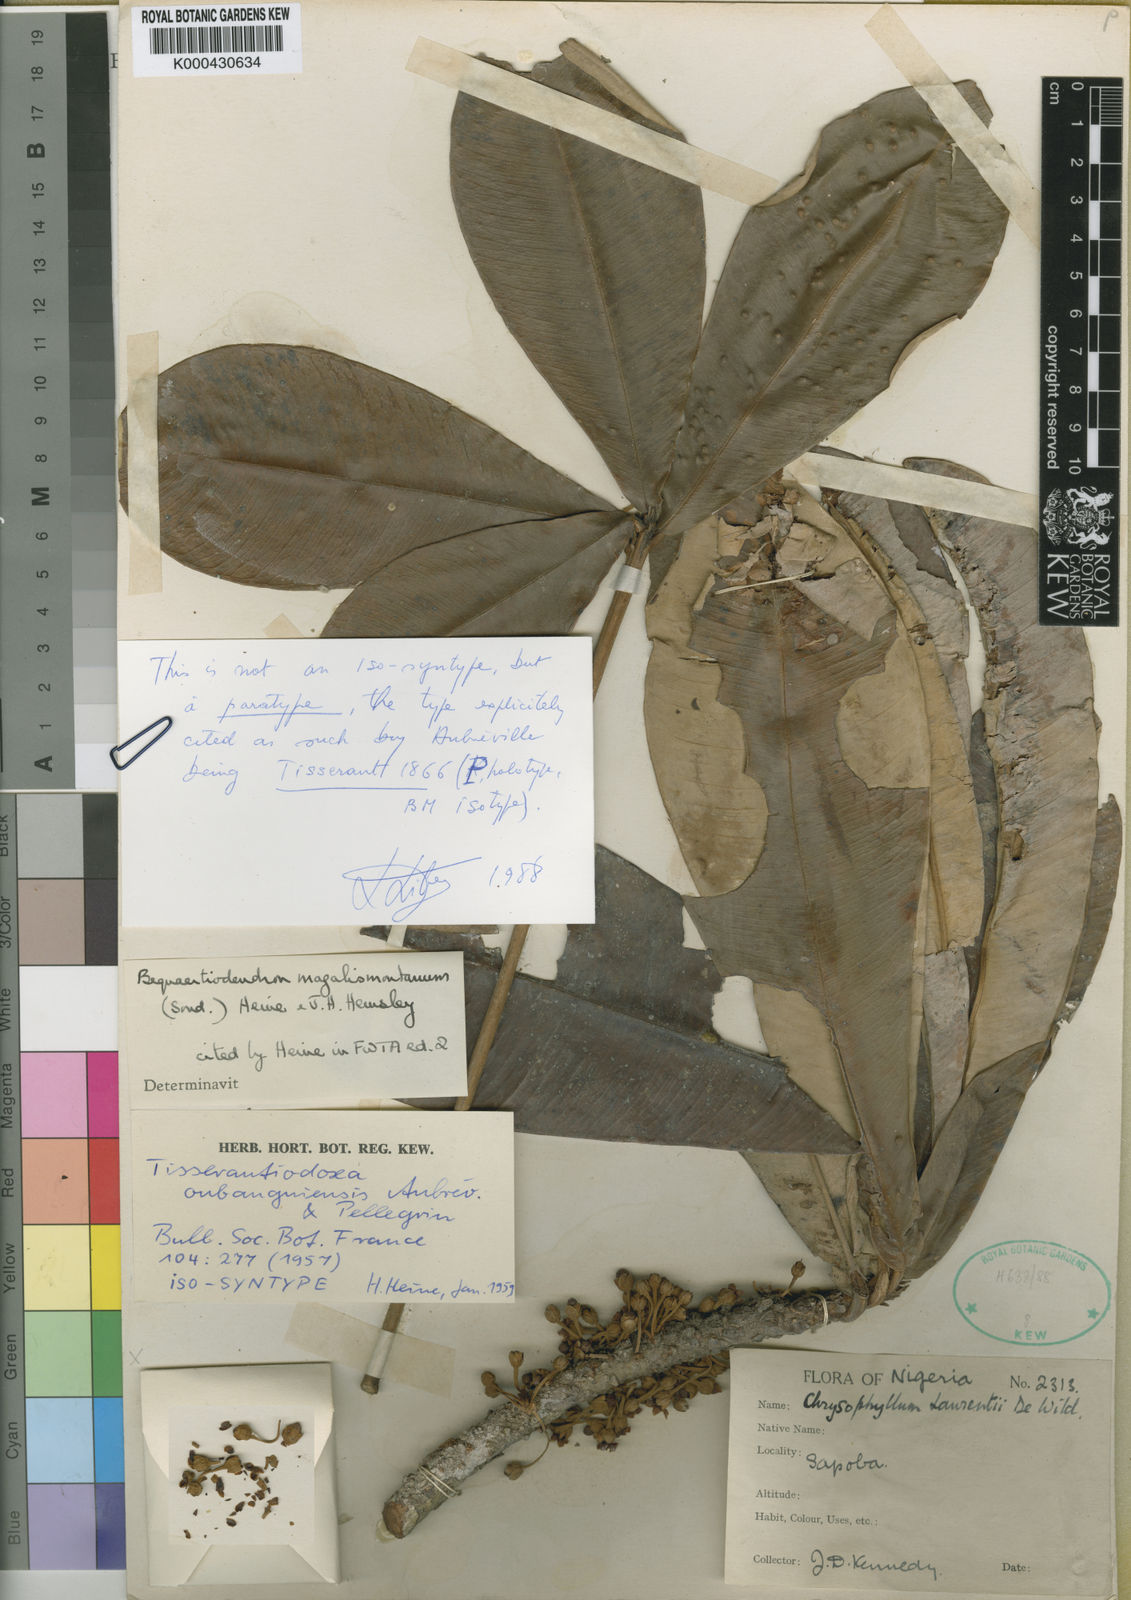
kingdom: Plantae
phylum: Tracheophyta
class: Magnoliopsida
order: Ericales
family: Sapotaceae
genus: Englerophytum
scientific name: Englerophytum magalismontanum
